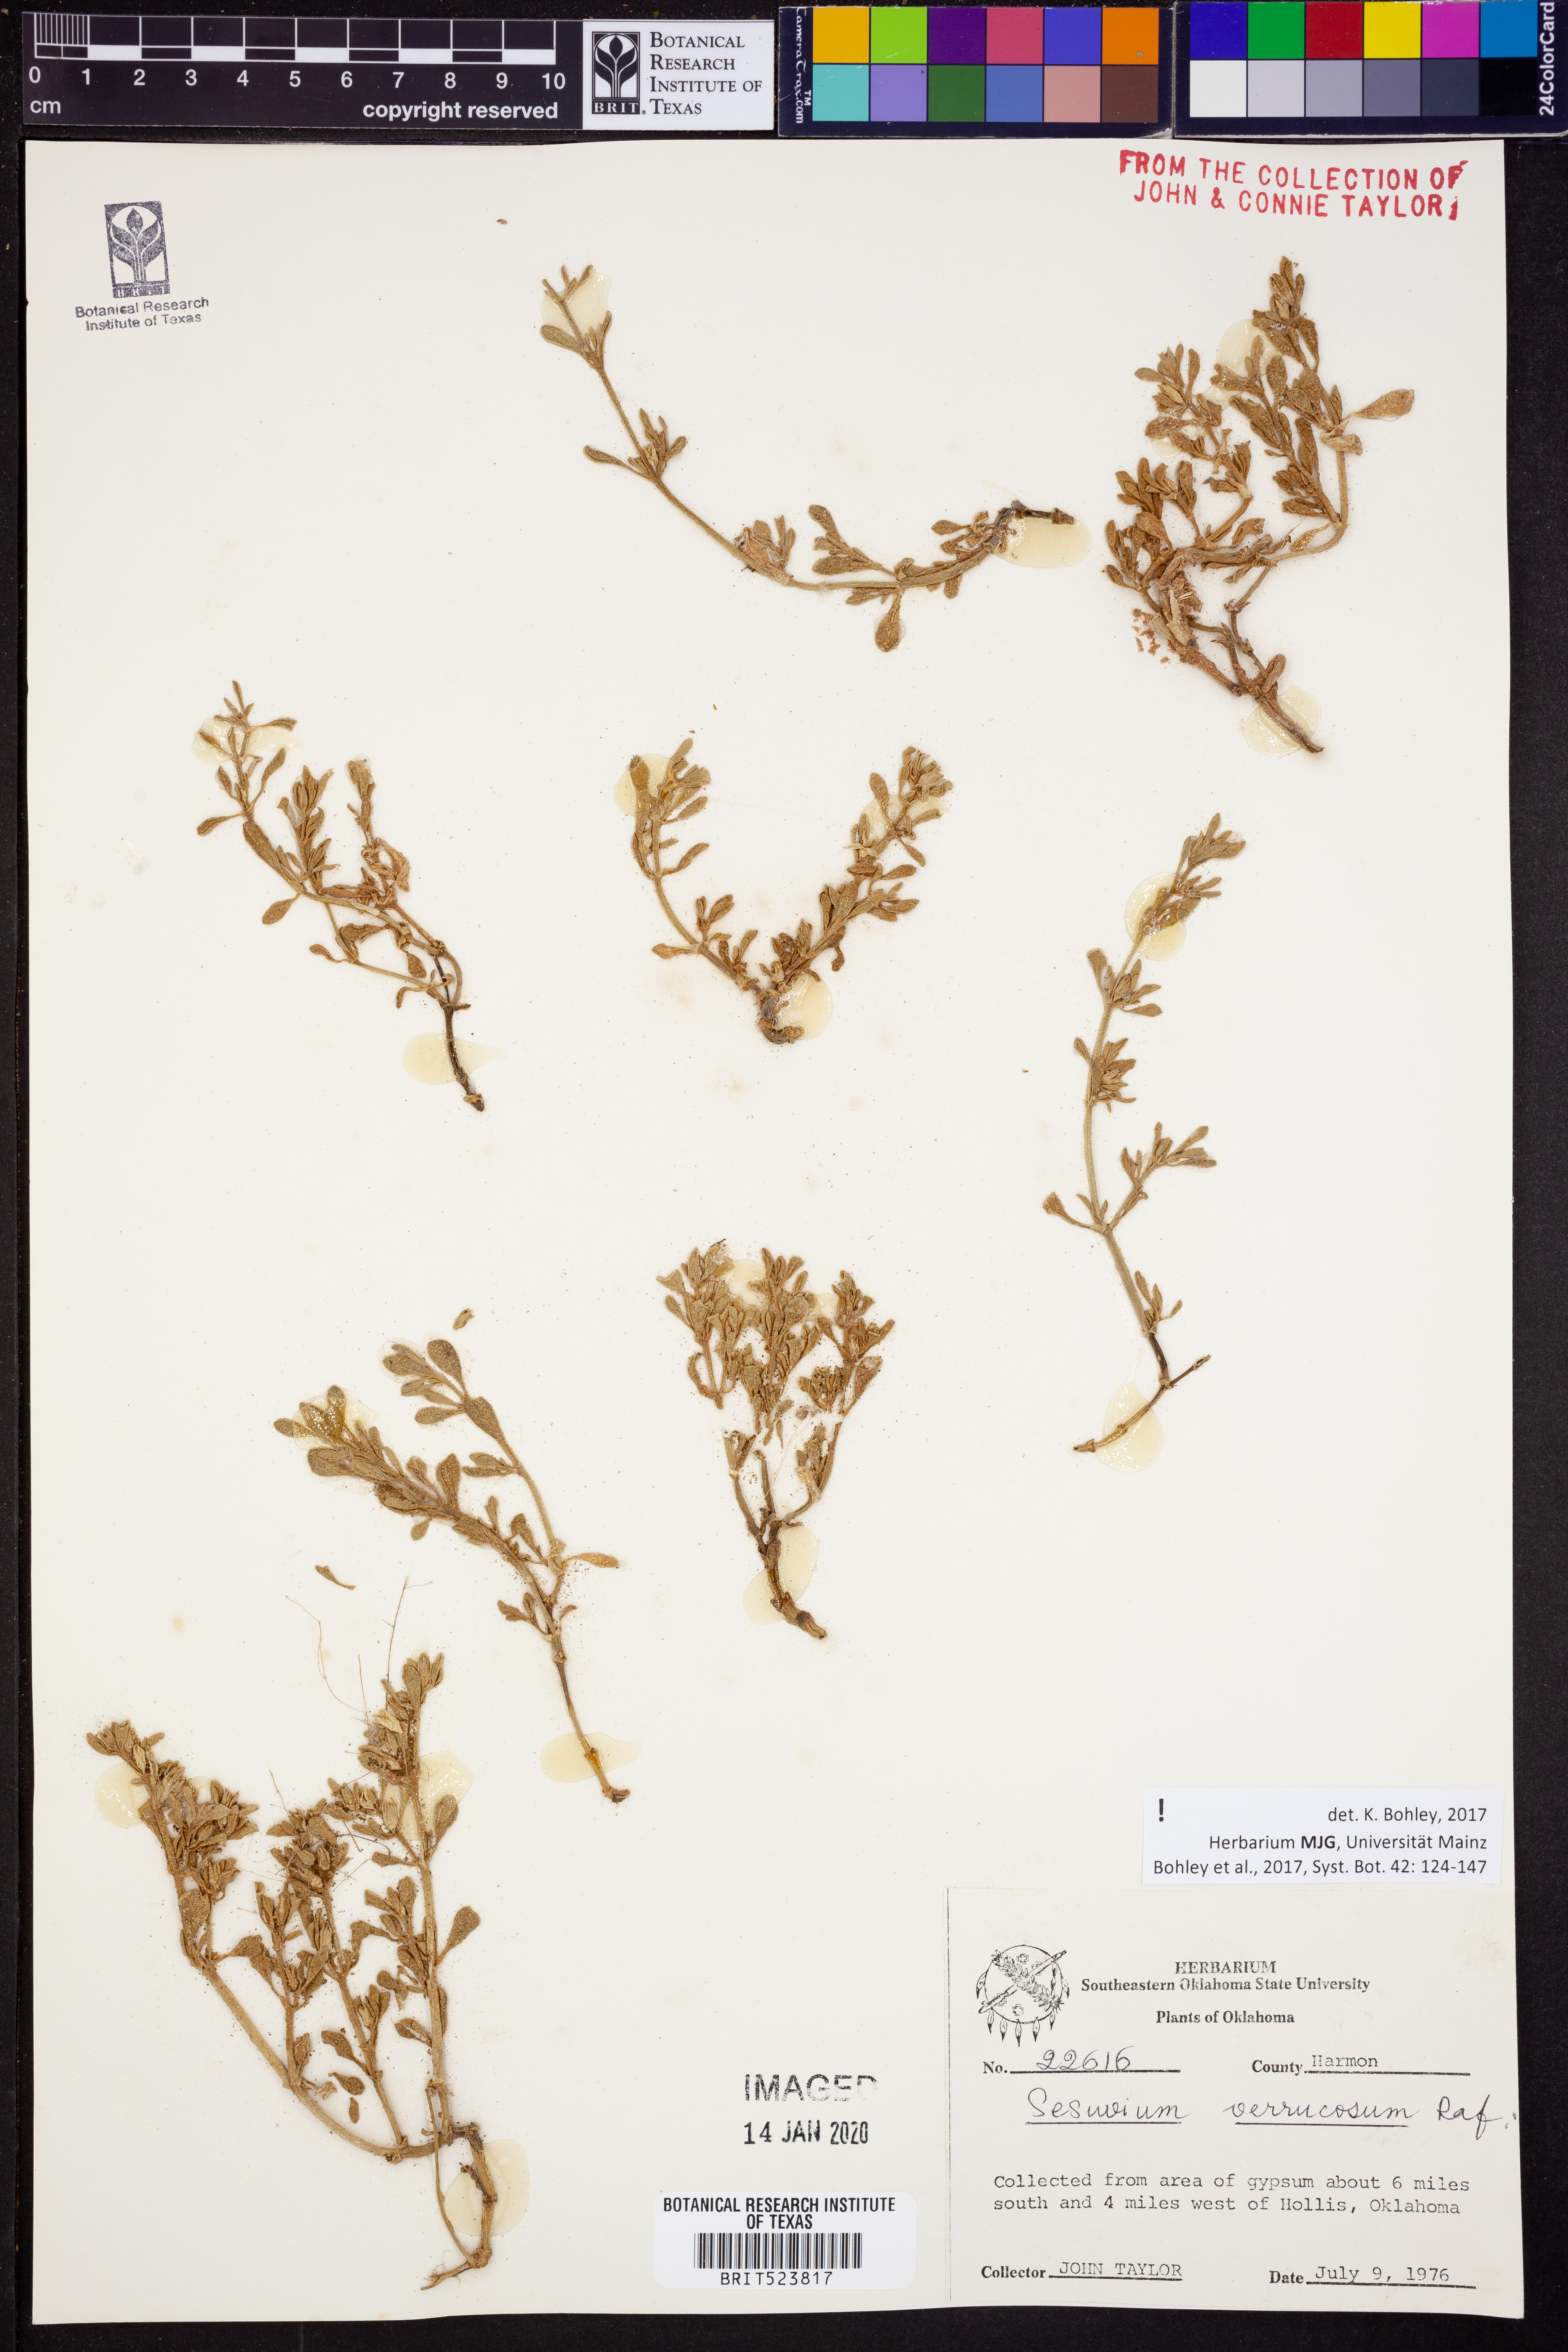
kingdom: Plantae
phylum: Tracheophyta
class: Magnoliopsida
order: Caryophyllales
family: Aizoaceae
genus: Sesuvium
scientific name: Sesuvium revolutifolium
